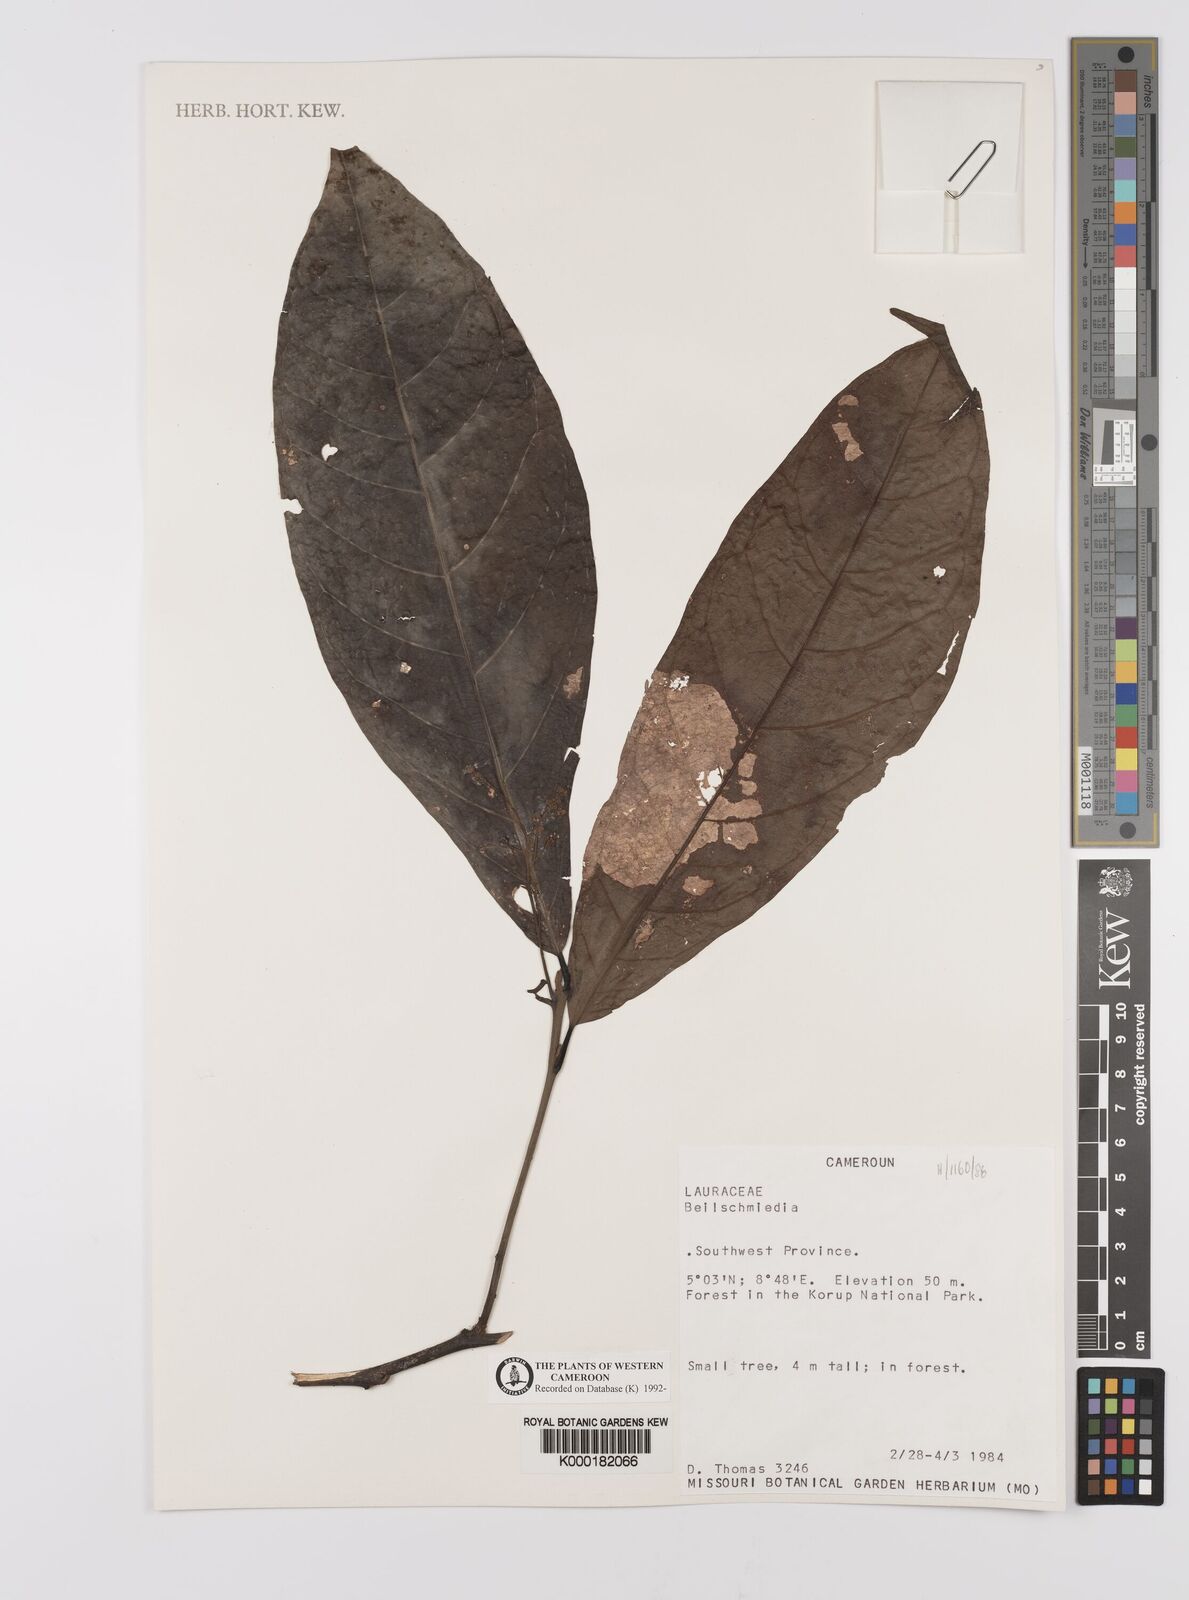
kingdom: Plantae
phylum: Tracheophyta
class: Magnoliopsida
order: Laurales
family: Lauraceae
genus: Beilschmiedia
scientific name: Beilschmiedia
